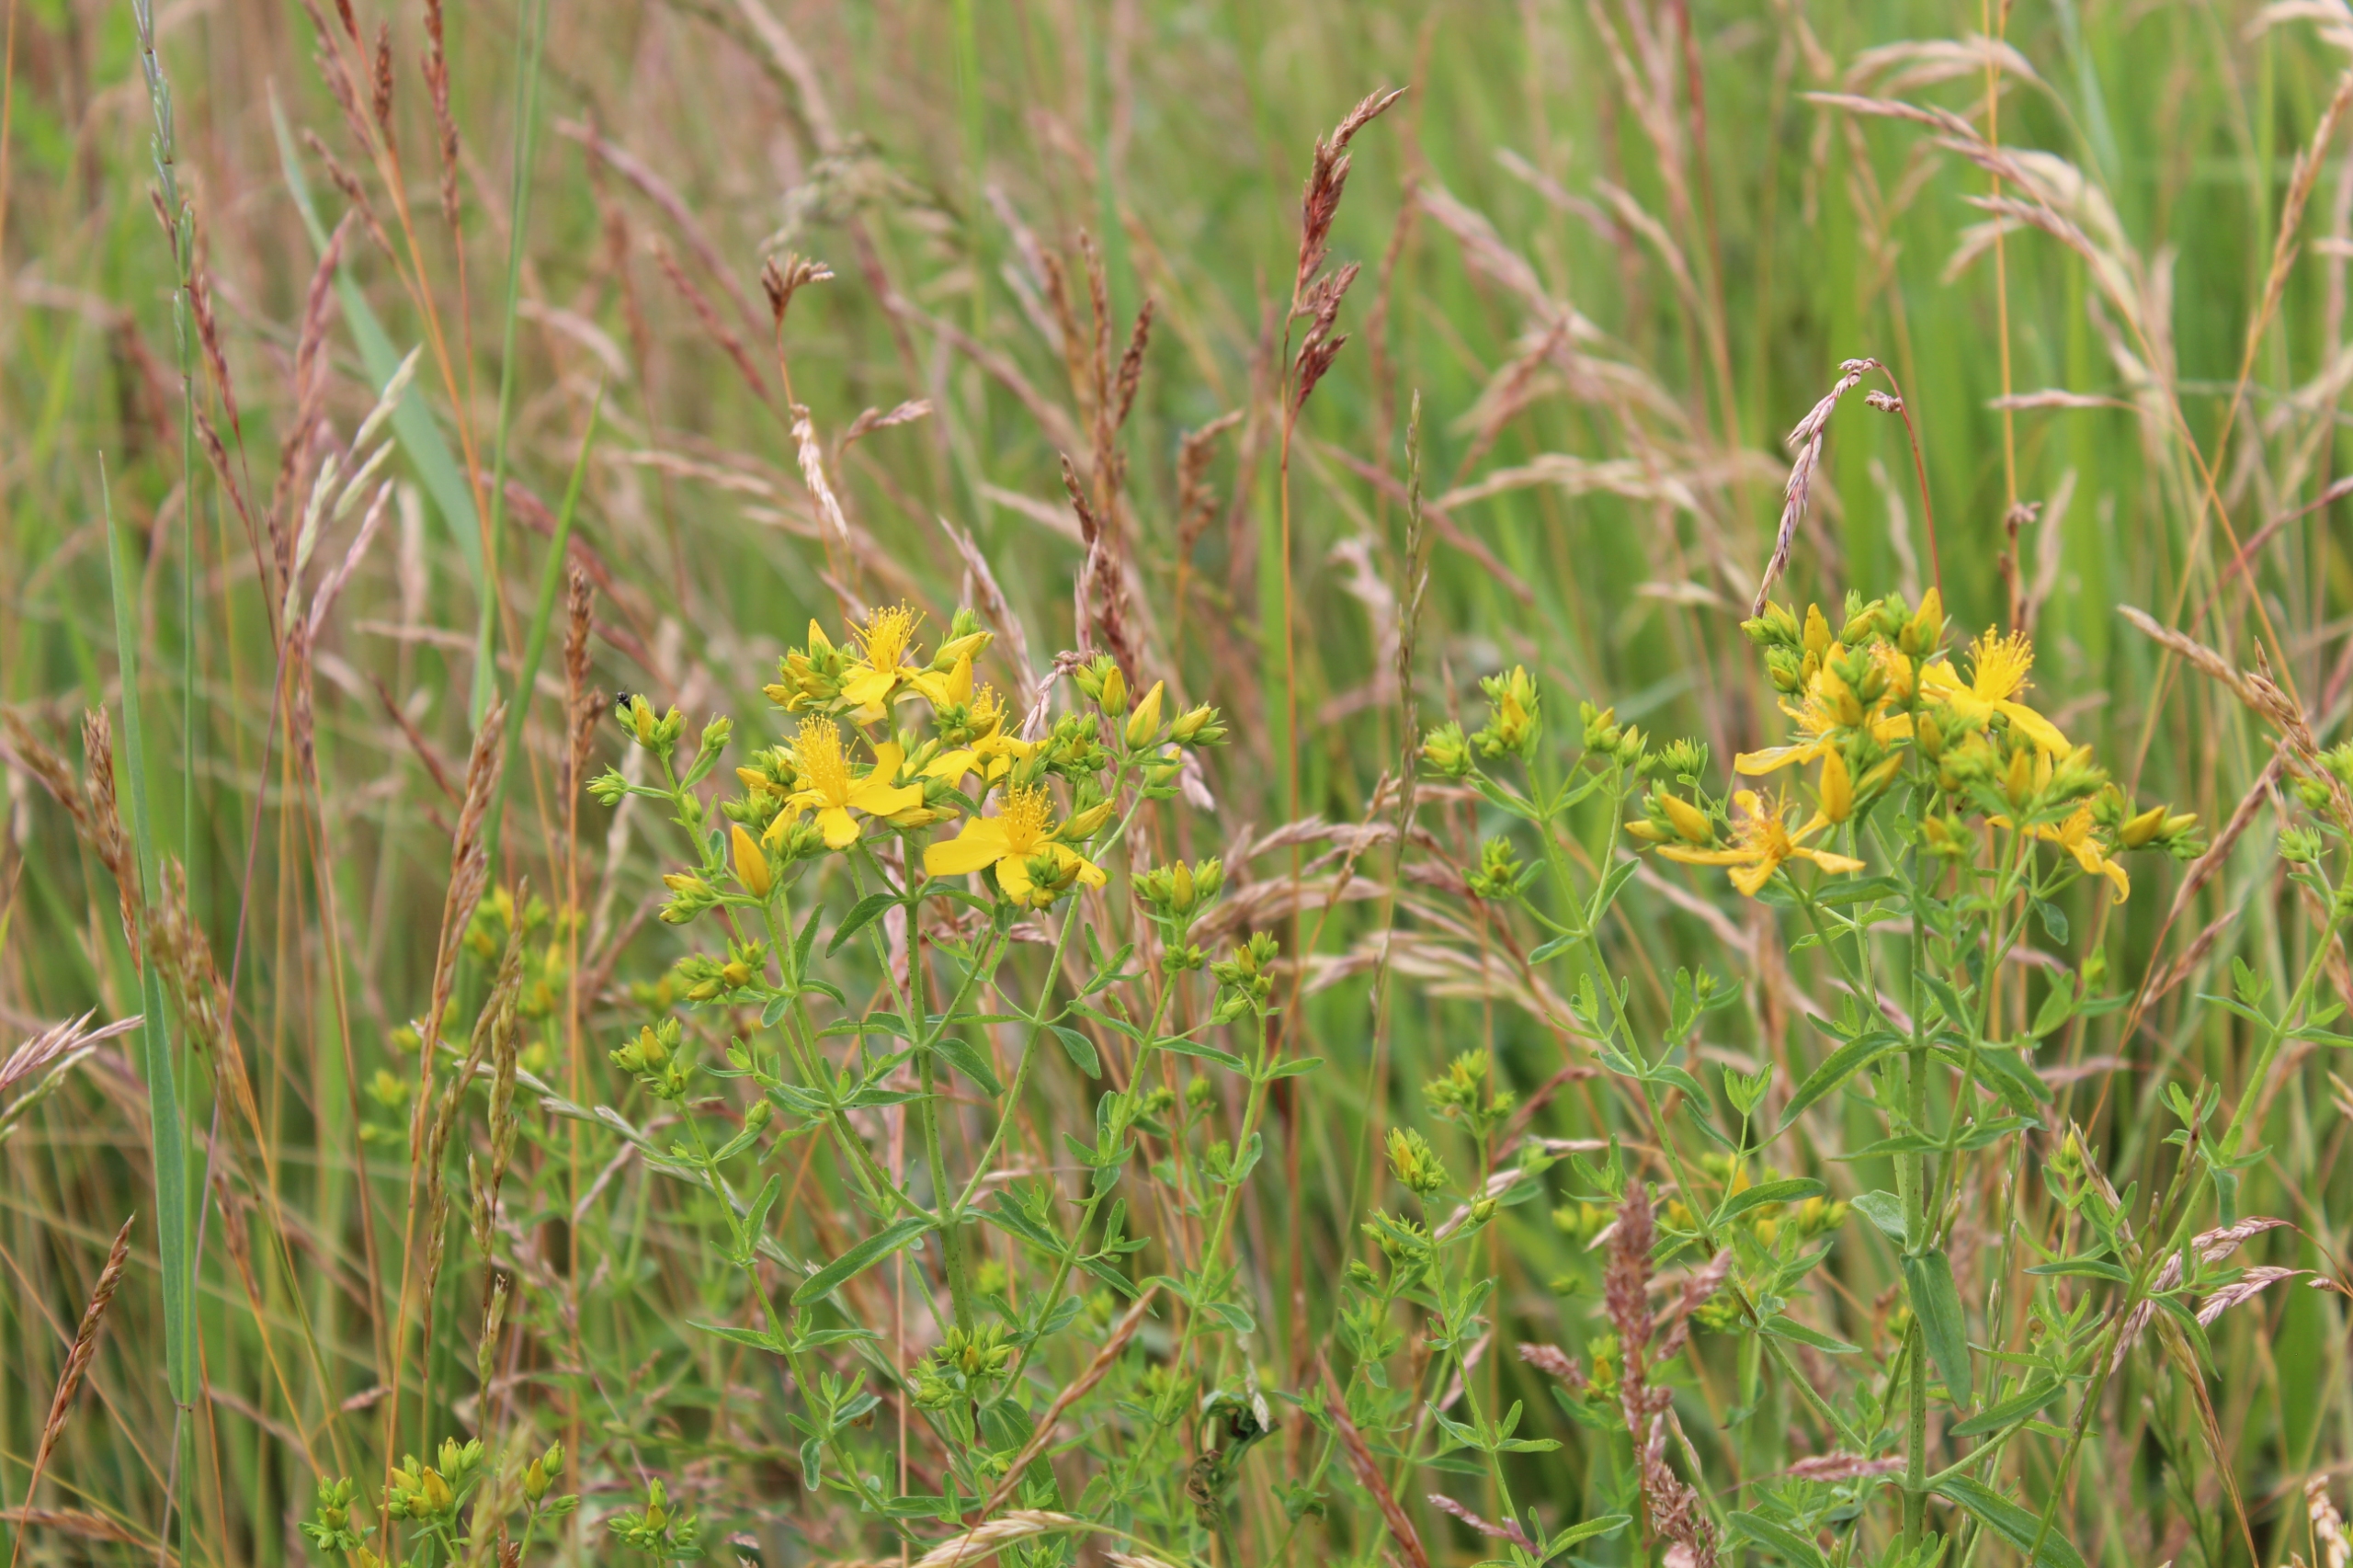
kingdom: Plantae
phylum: Tracheophyta
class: Magnoliopsida
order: Malpighiales
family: Hypericaceae
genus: Hypericum
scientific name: Hypericum perforatum
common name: Prikbladet perikon
